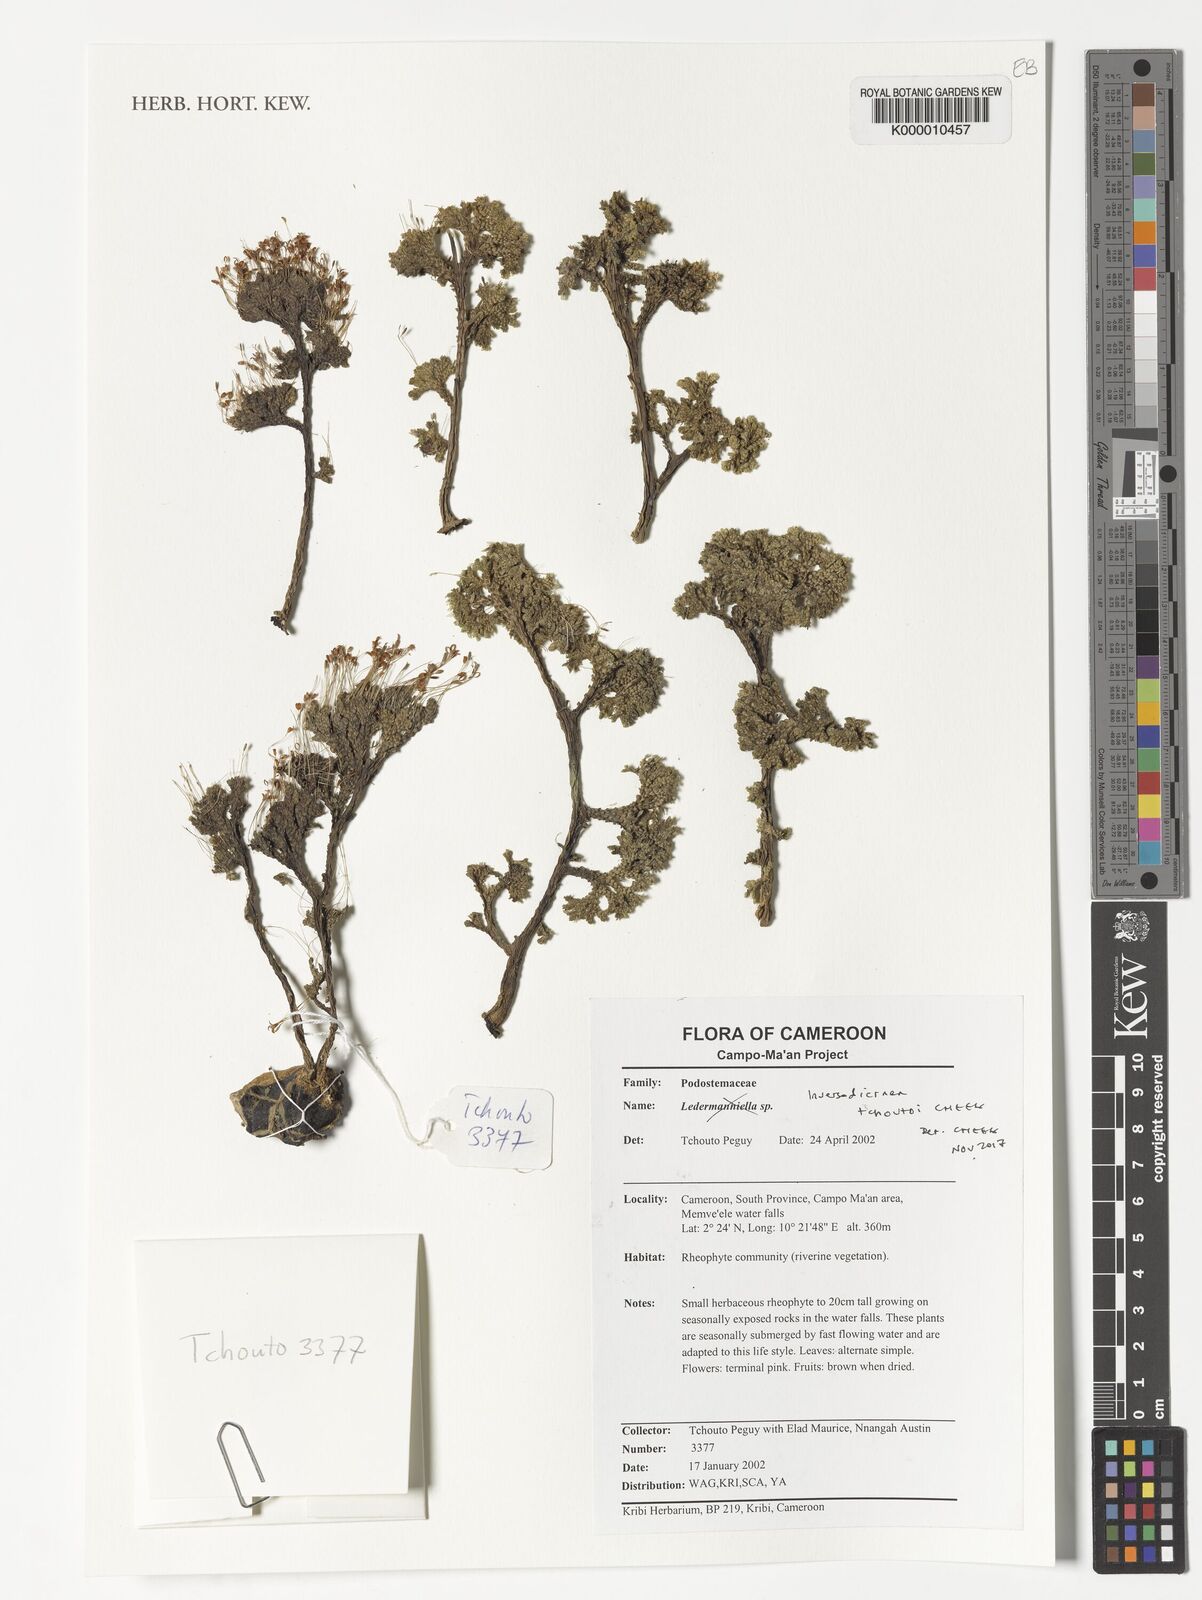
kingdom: Plantae
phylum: Tracheophyta
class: Magnoliopsida
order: Malpighiales
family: Podostemaceae
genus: Inversodicraea
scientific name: Inversodicraea tchoutoi
